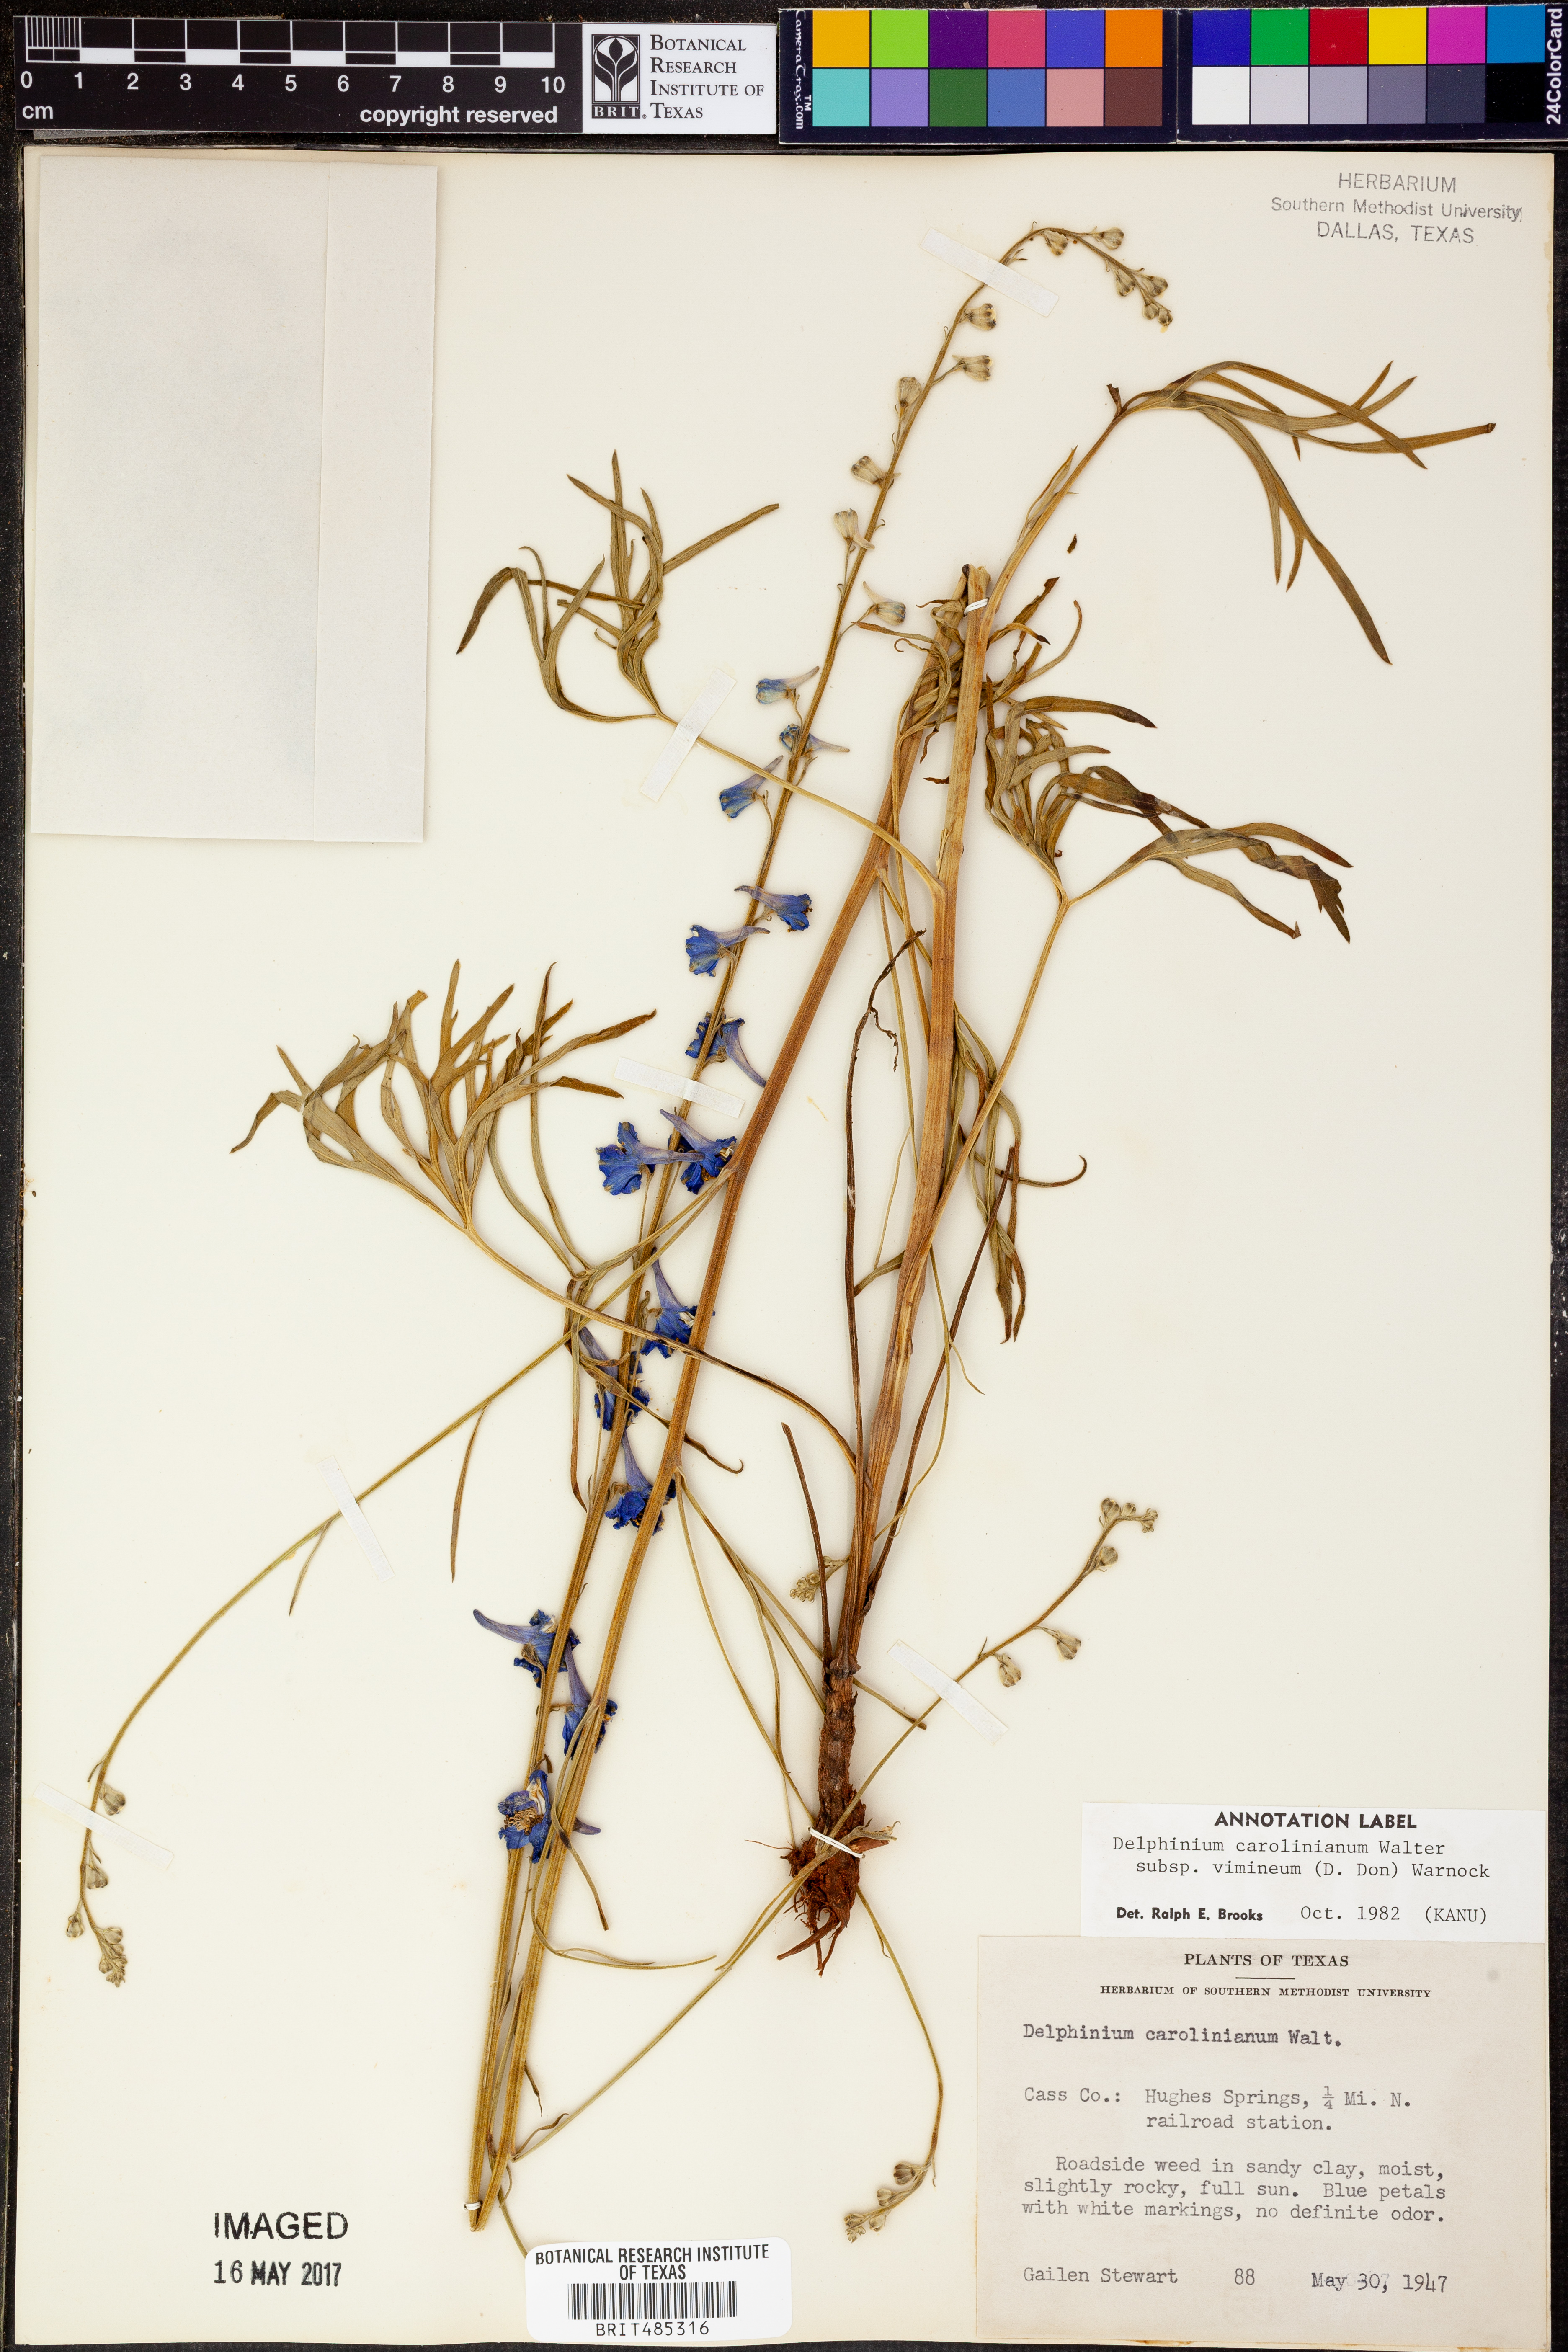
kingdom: Plantae
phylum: Tracheophyta
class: Magnoliopsida
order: Ranunculales
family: Ranunculaceae
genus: Delphinium
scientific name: Delphinium carolinianum
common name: Carolina larkspur
